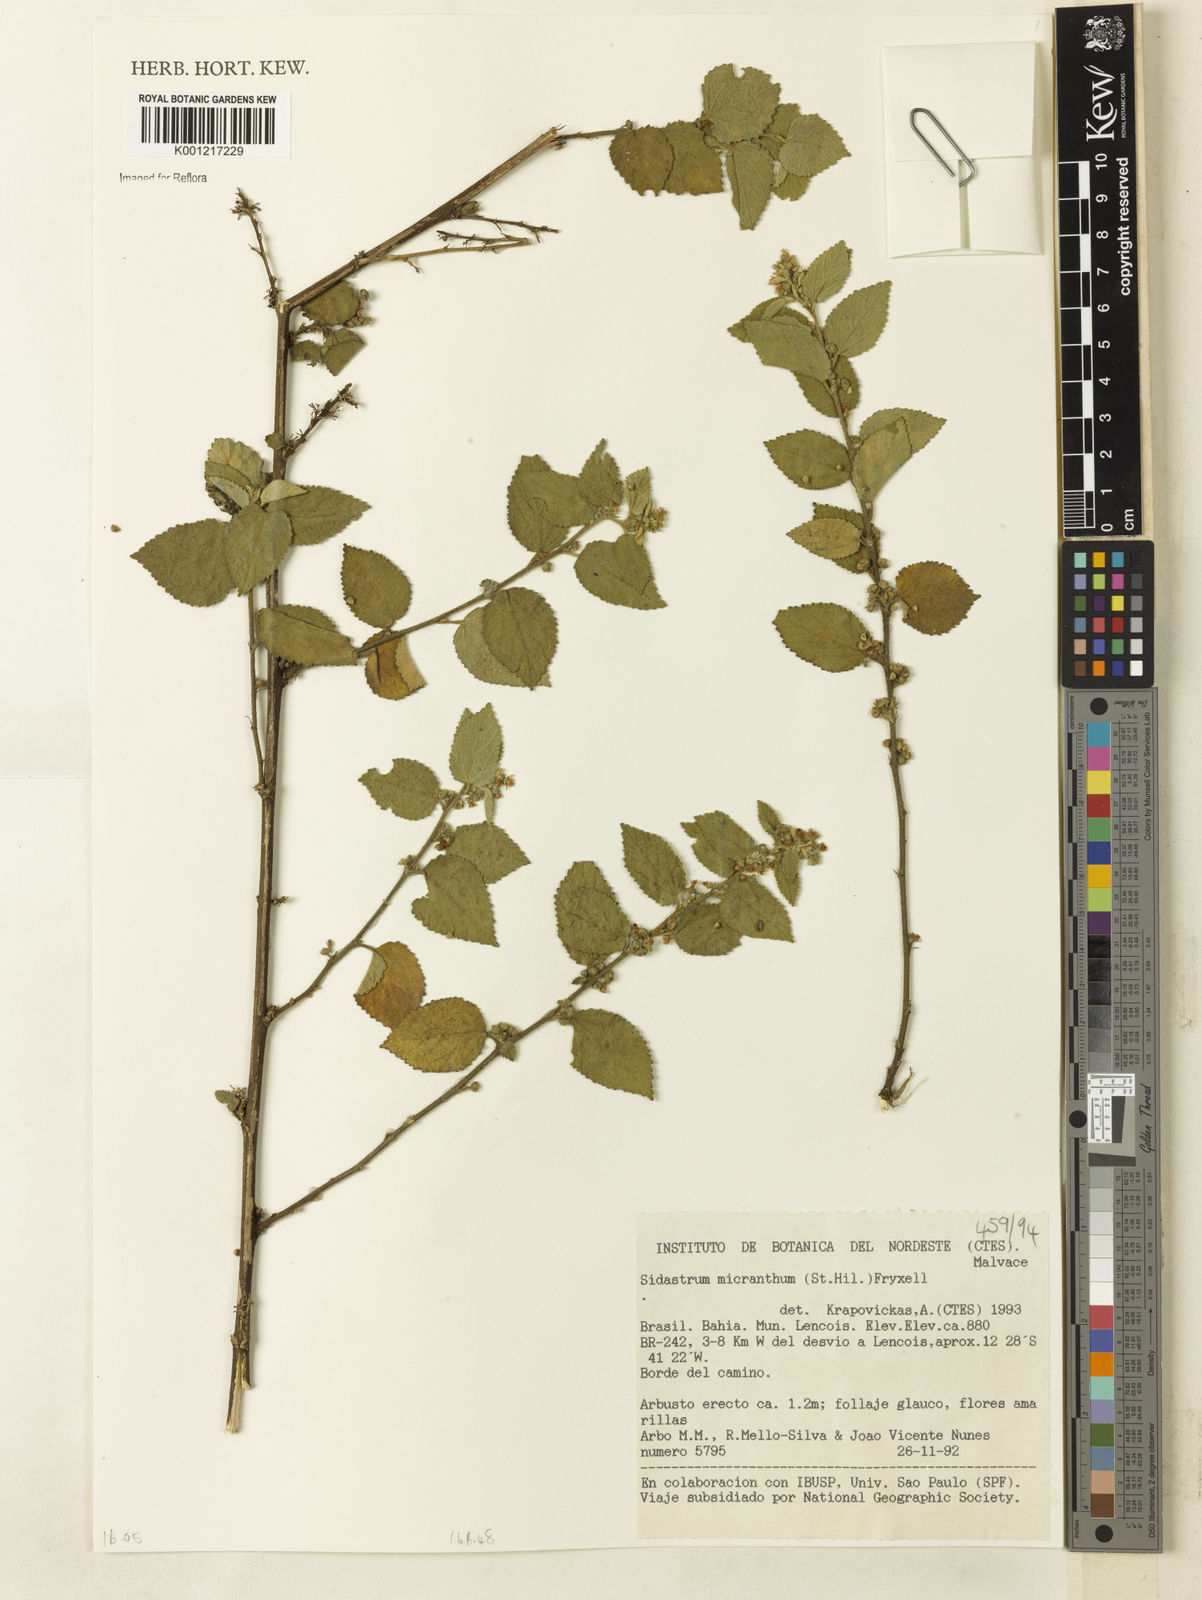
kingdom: Plantae
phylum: Tracheophyta
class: Magnoliopsida
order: Malvales
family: Malvaceae
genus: Sidastrum
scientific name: Sidastrum micranthum
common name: Dainty sandmallow
